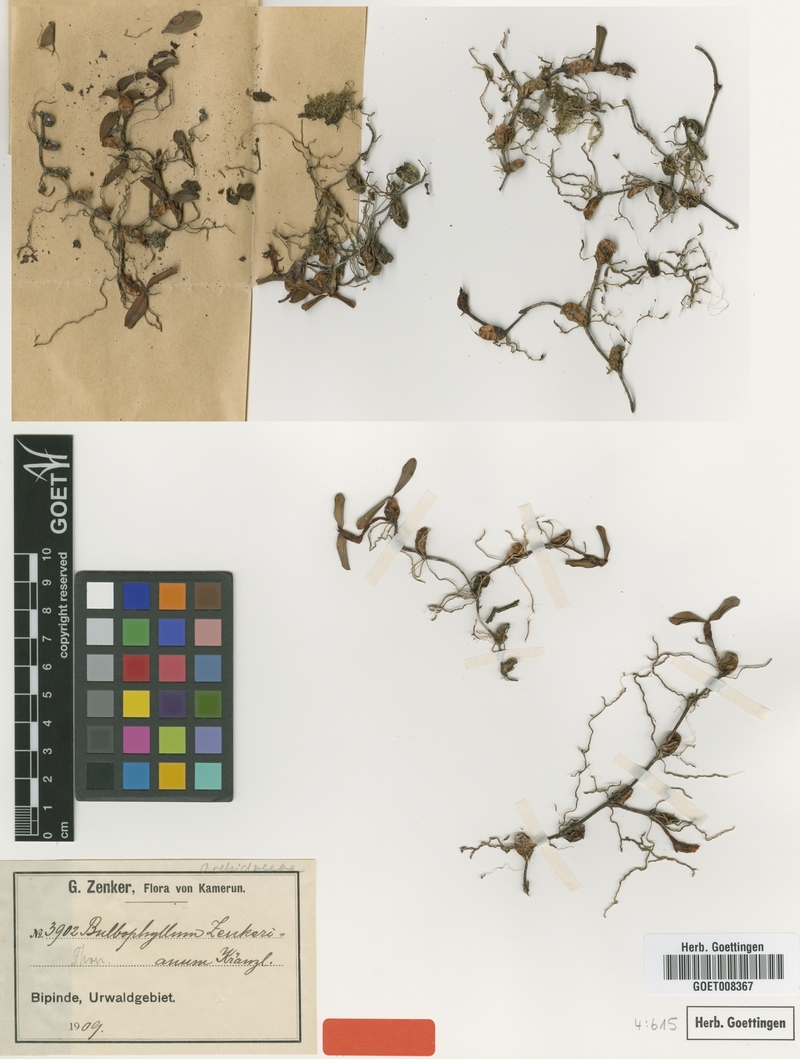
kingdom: Plantae
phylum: Tracheophyta
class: Liliopsida
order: Asparagales
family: Orchidaceae
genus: Bulbophyllum
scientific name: Bulbophyllum oreonastes
